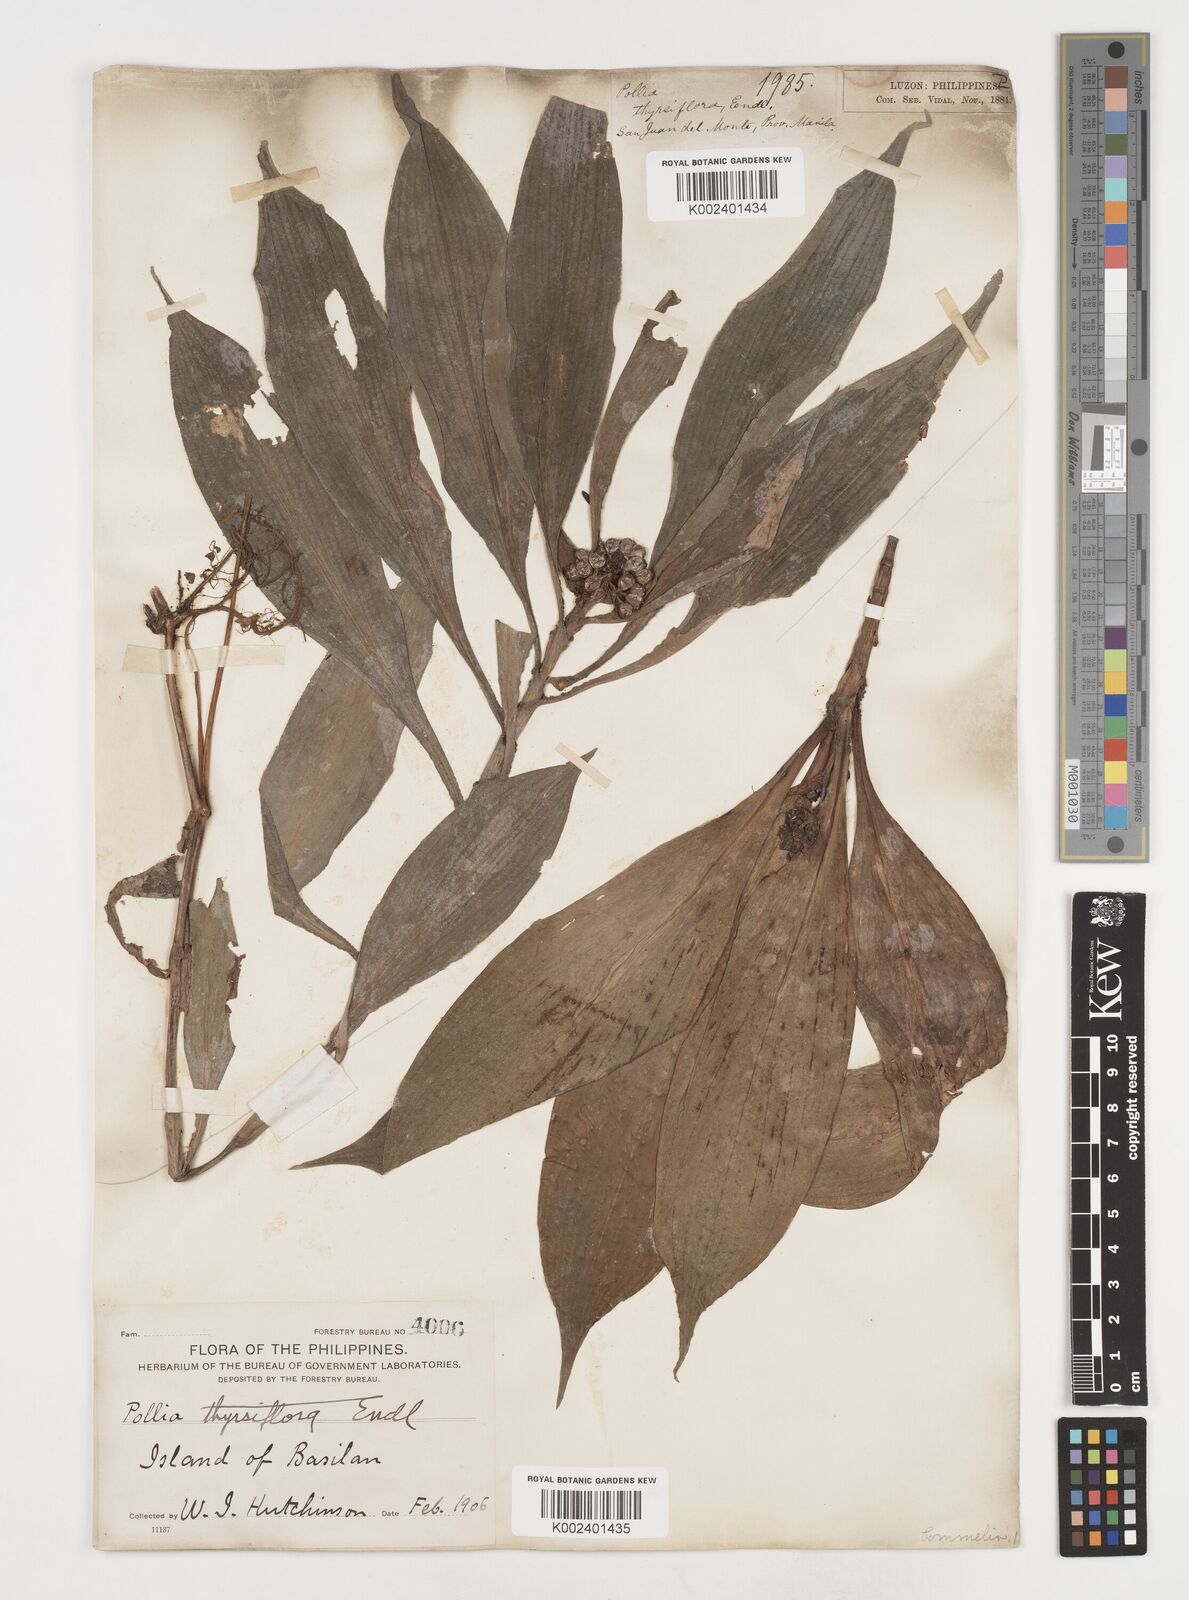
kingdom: Plantae
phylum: Tracheophyta
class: Liliopsida
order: Commelinales
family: Commelinaceae
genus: Pollia
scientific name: Pollia thyrsiflora
